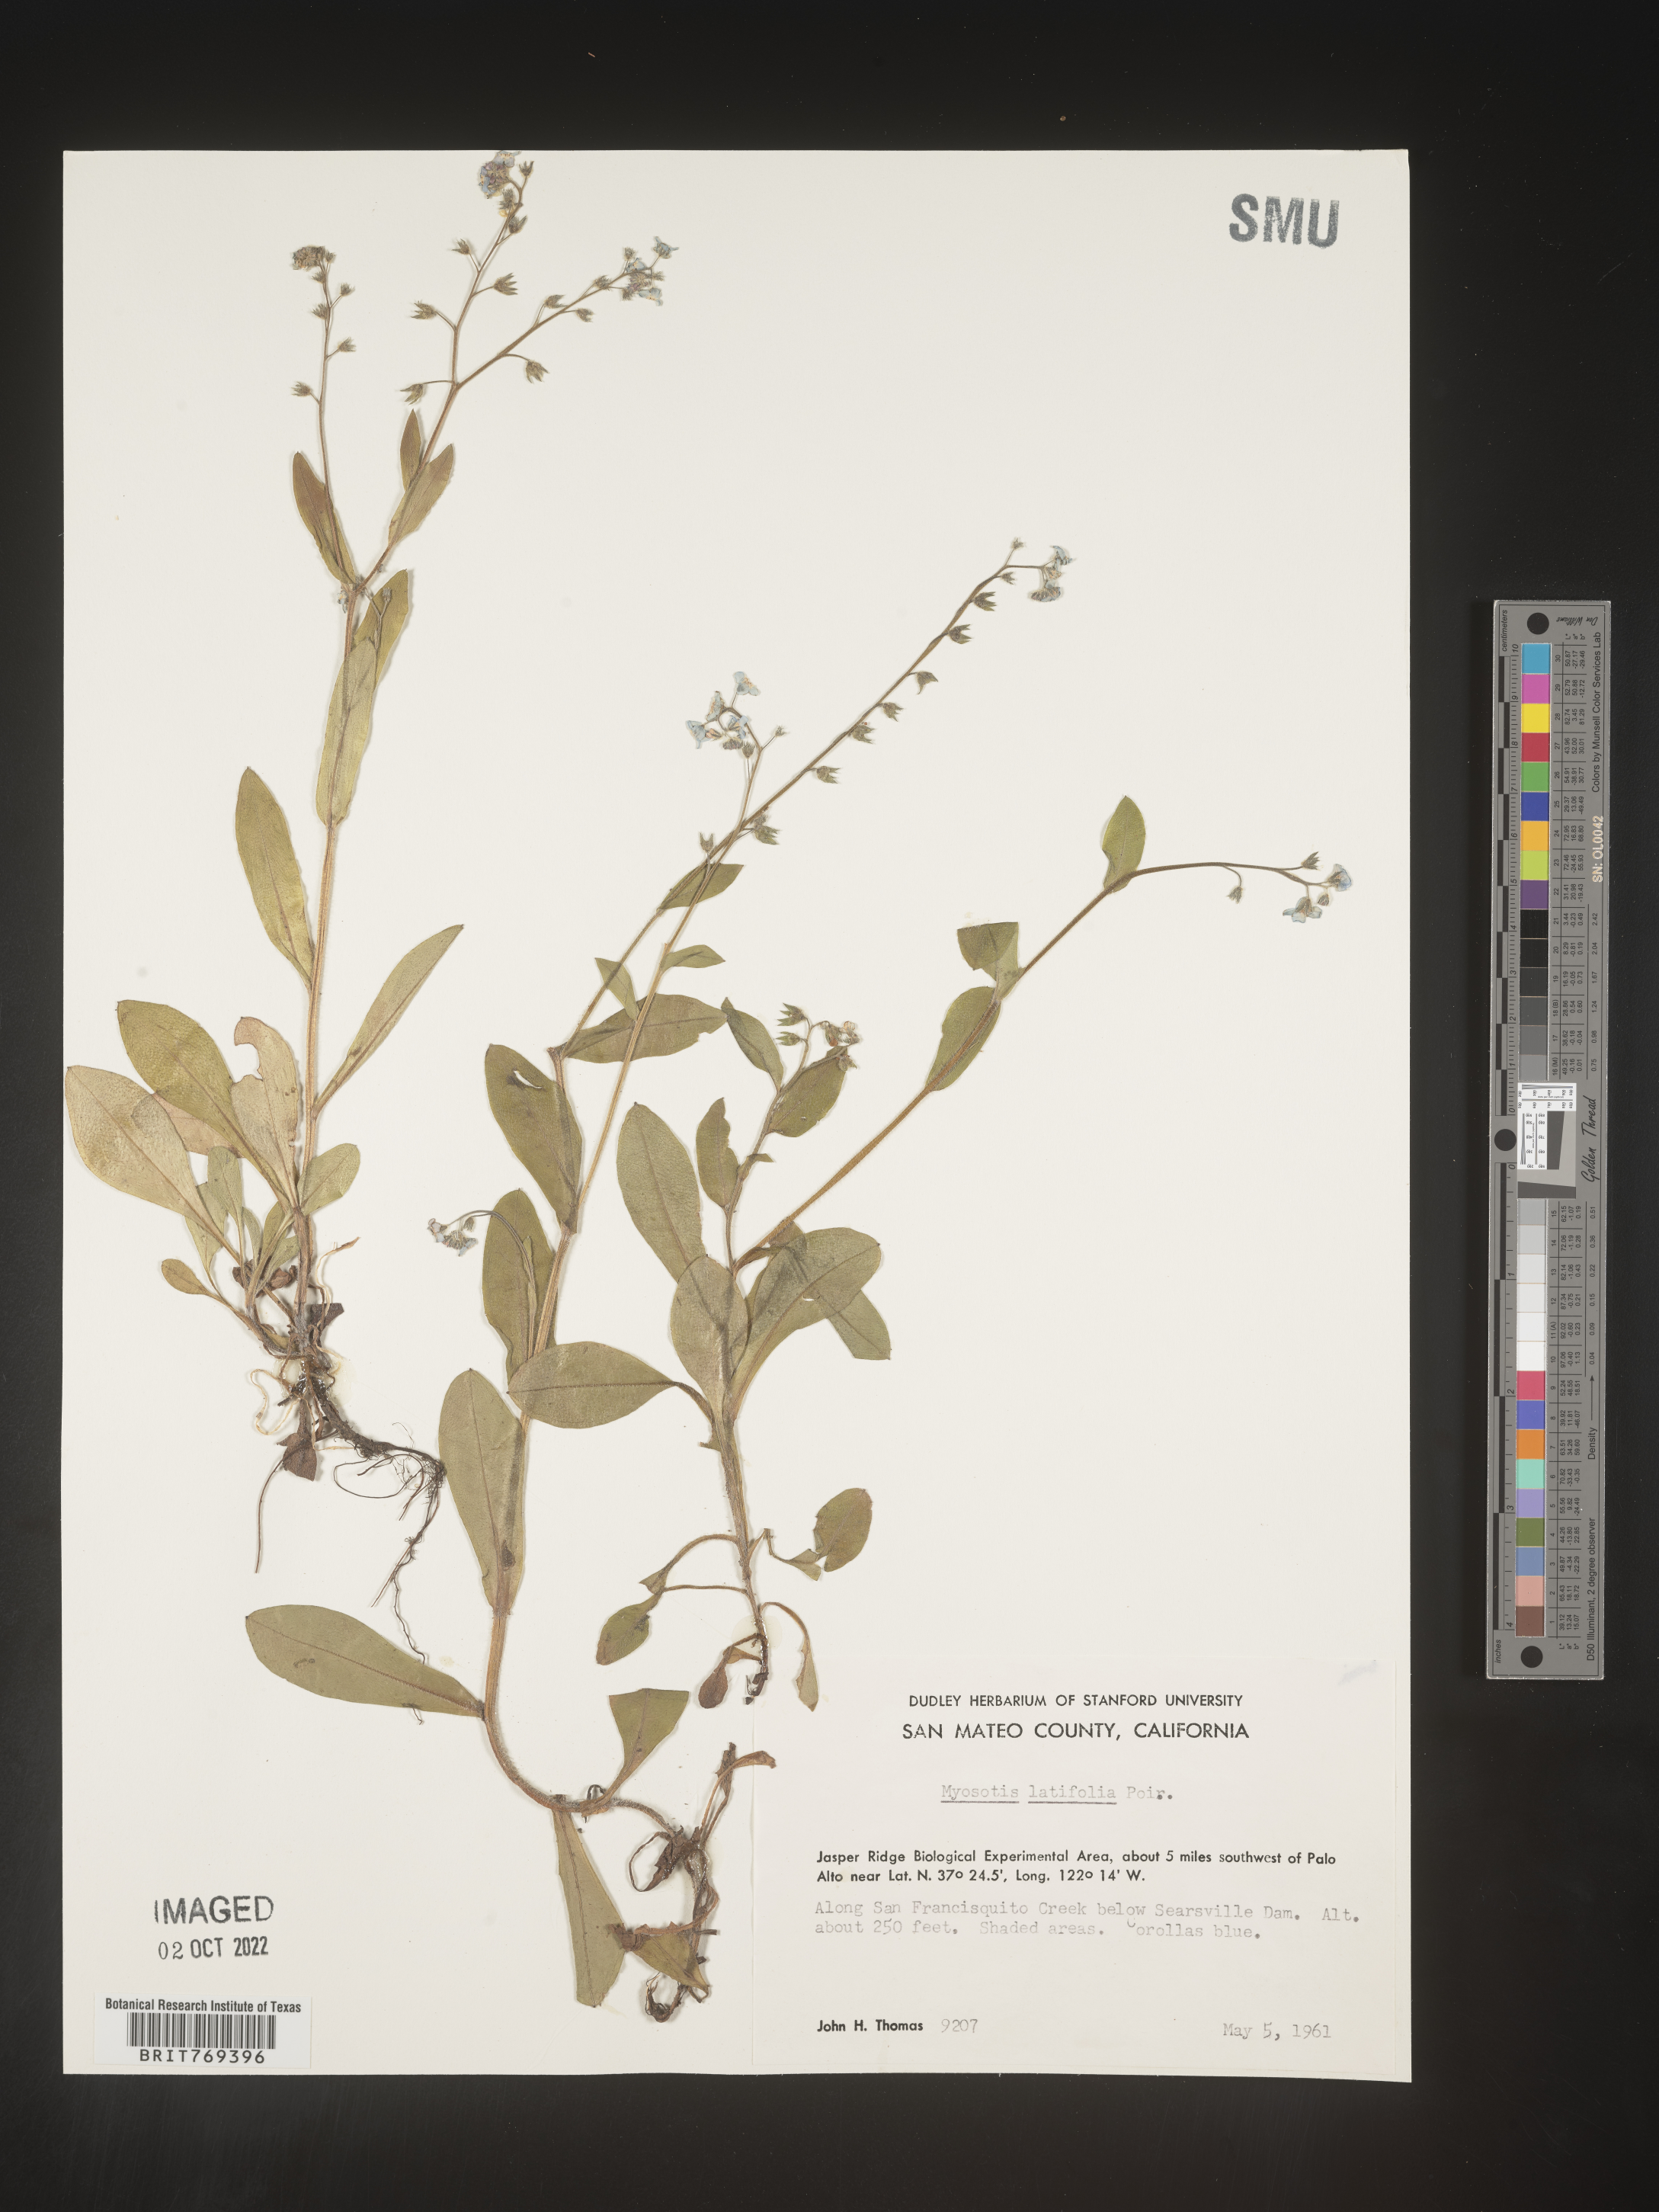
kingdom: Plantae
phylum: Tracheophyta
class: Magnoliopsida
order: Boraginales
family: Boraginaceae
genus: Myosotis
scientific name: Myosotis
